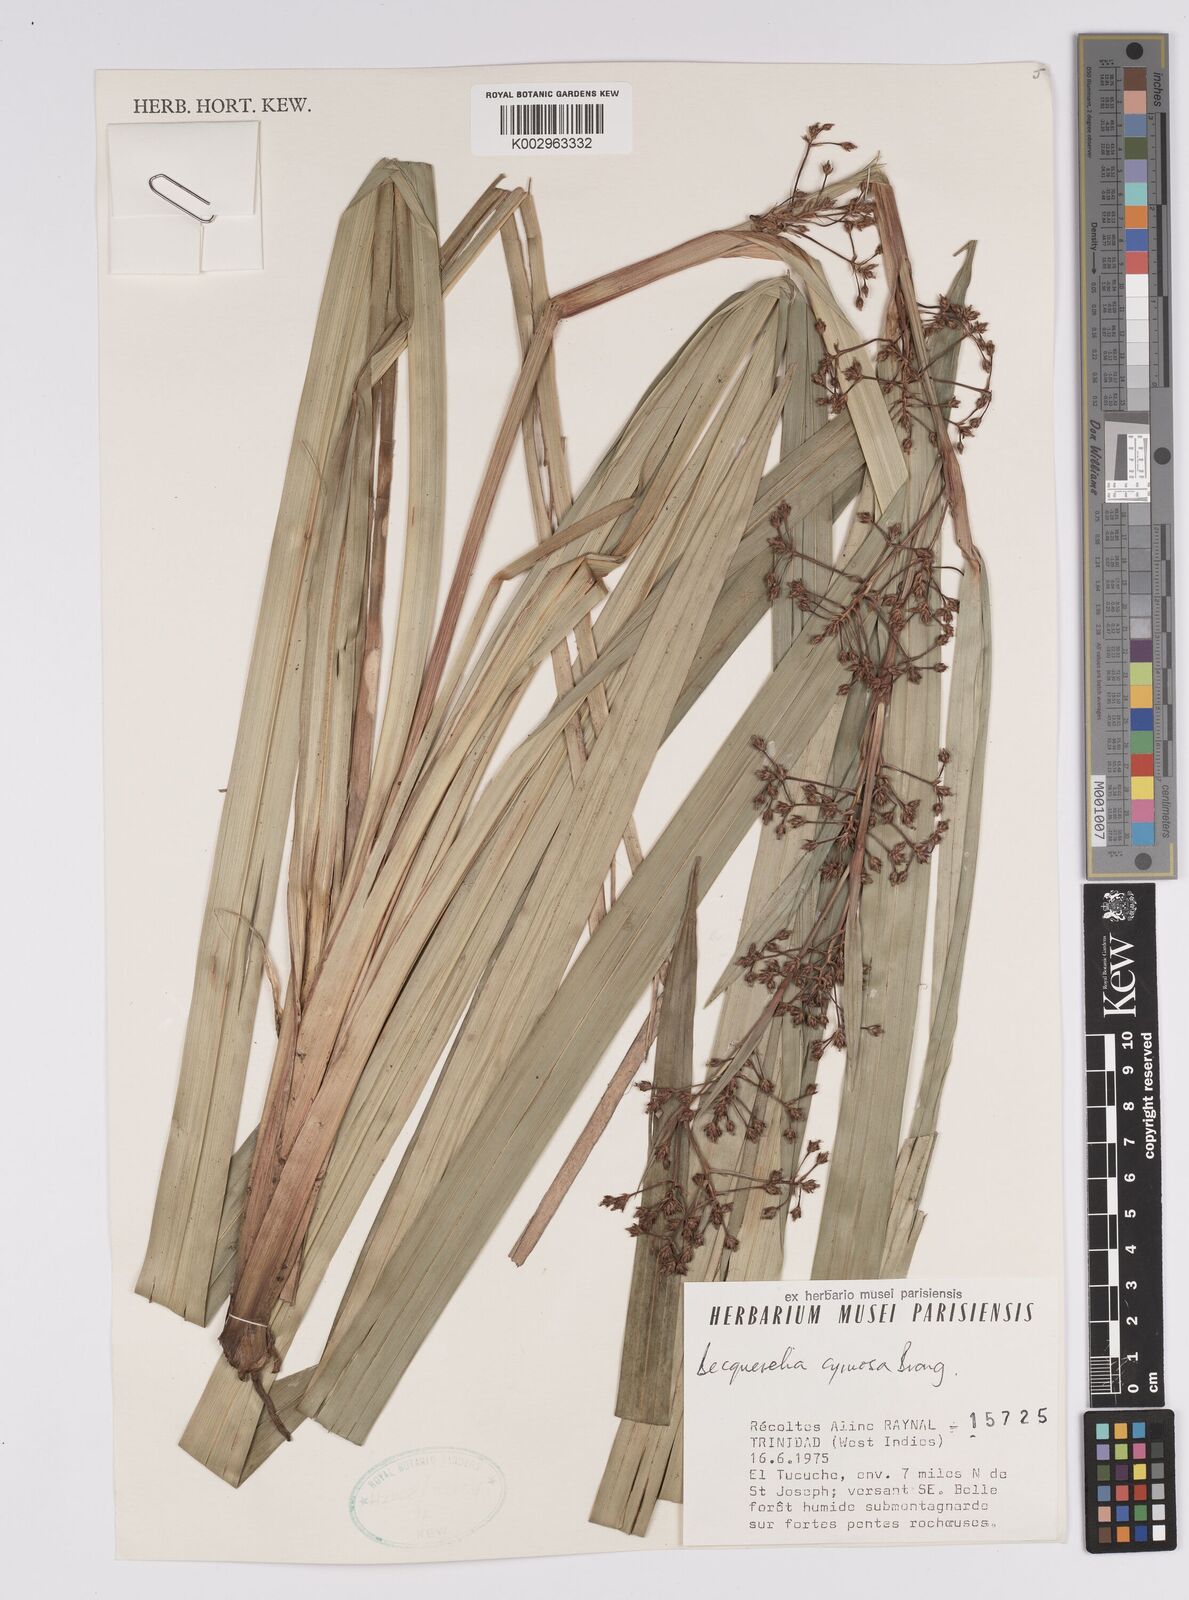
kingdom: Plantae
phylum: Tracheophyta
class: Liliopsida
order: Poales
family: Cyperaceae
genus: Becquerelia
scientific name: Becquerelia cymosa
